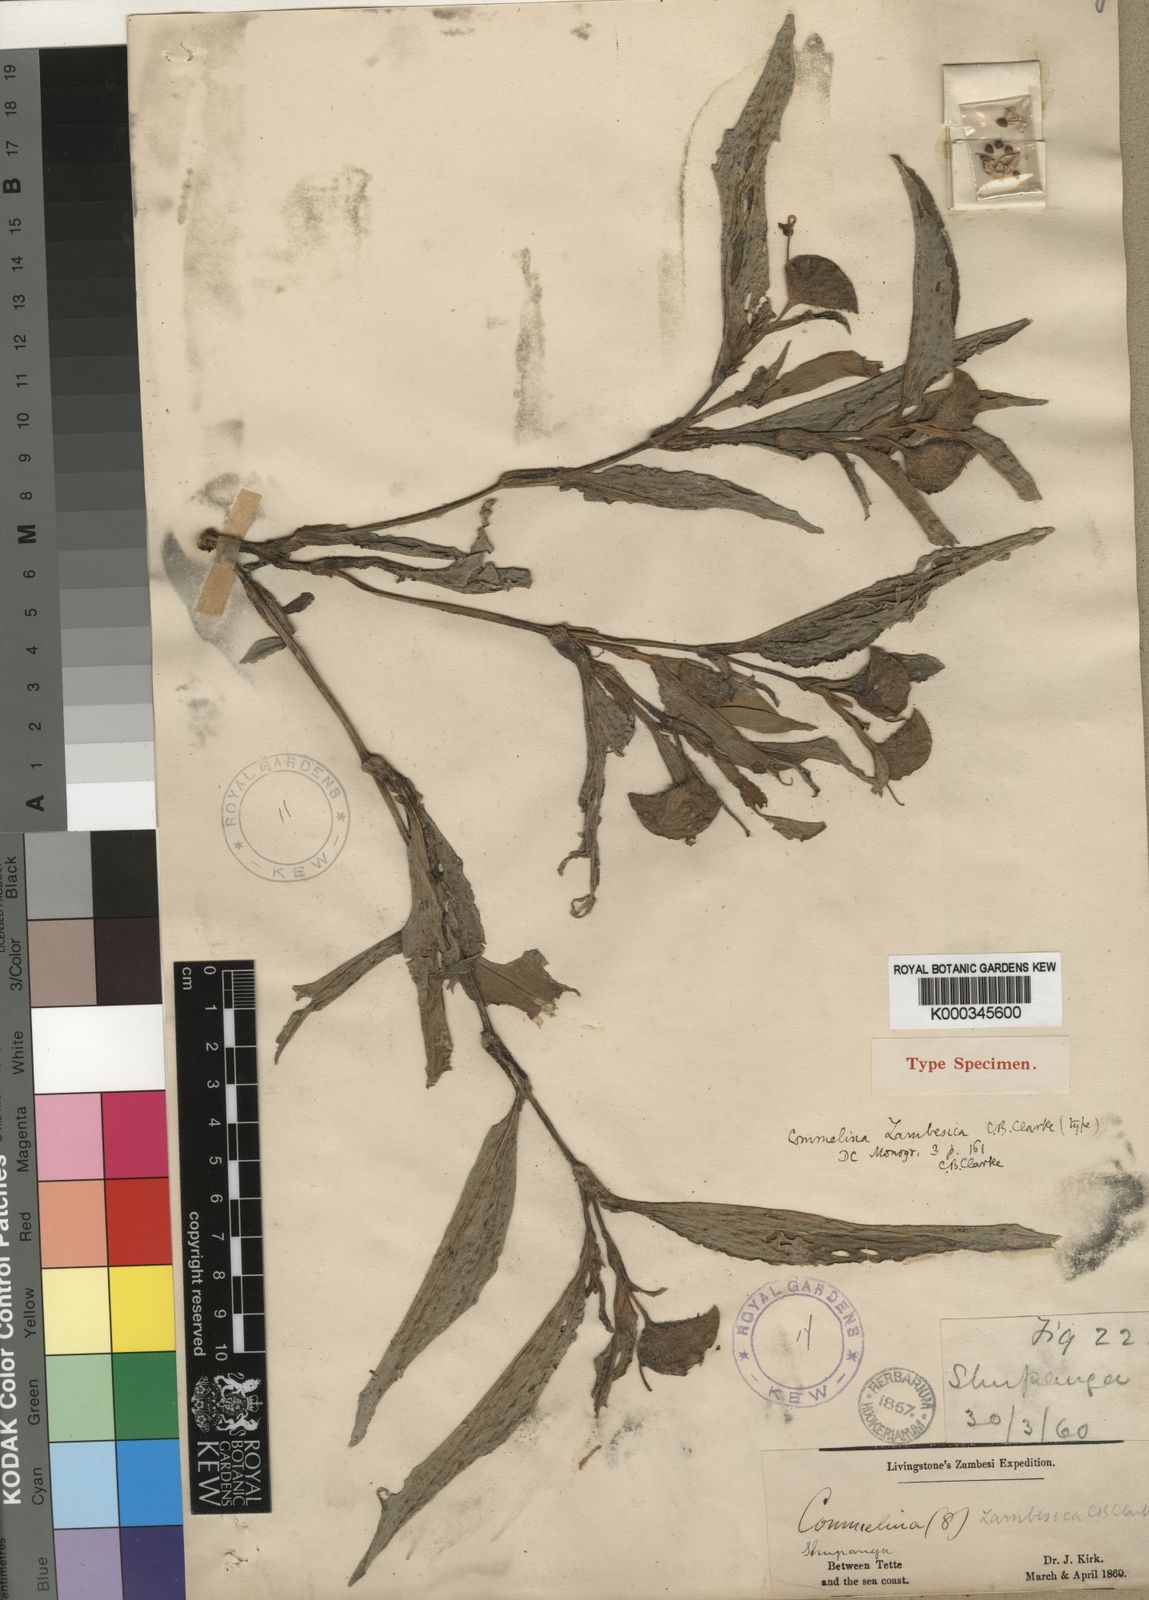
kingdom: Plantae
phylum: Tracheophyta
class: Liliopsida
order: Commelinales
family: Commelinaceae
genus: Commelina
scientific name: Commelina zambesica
